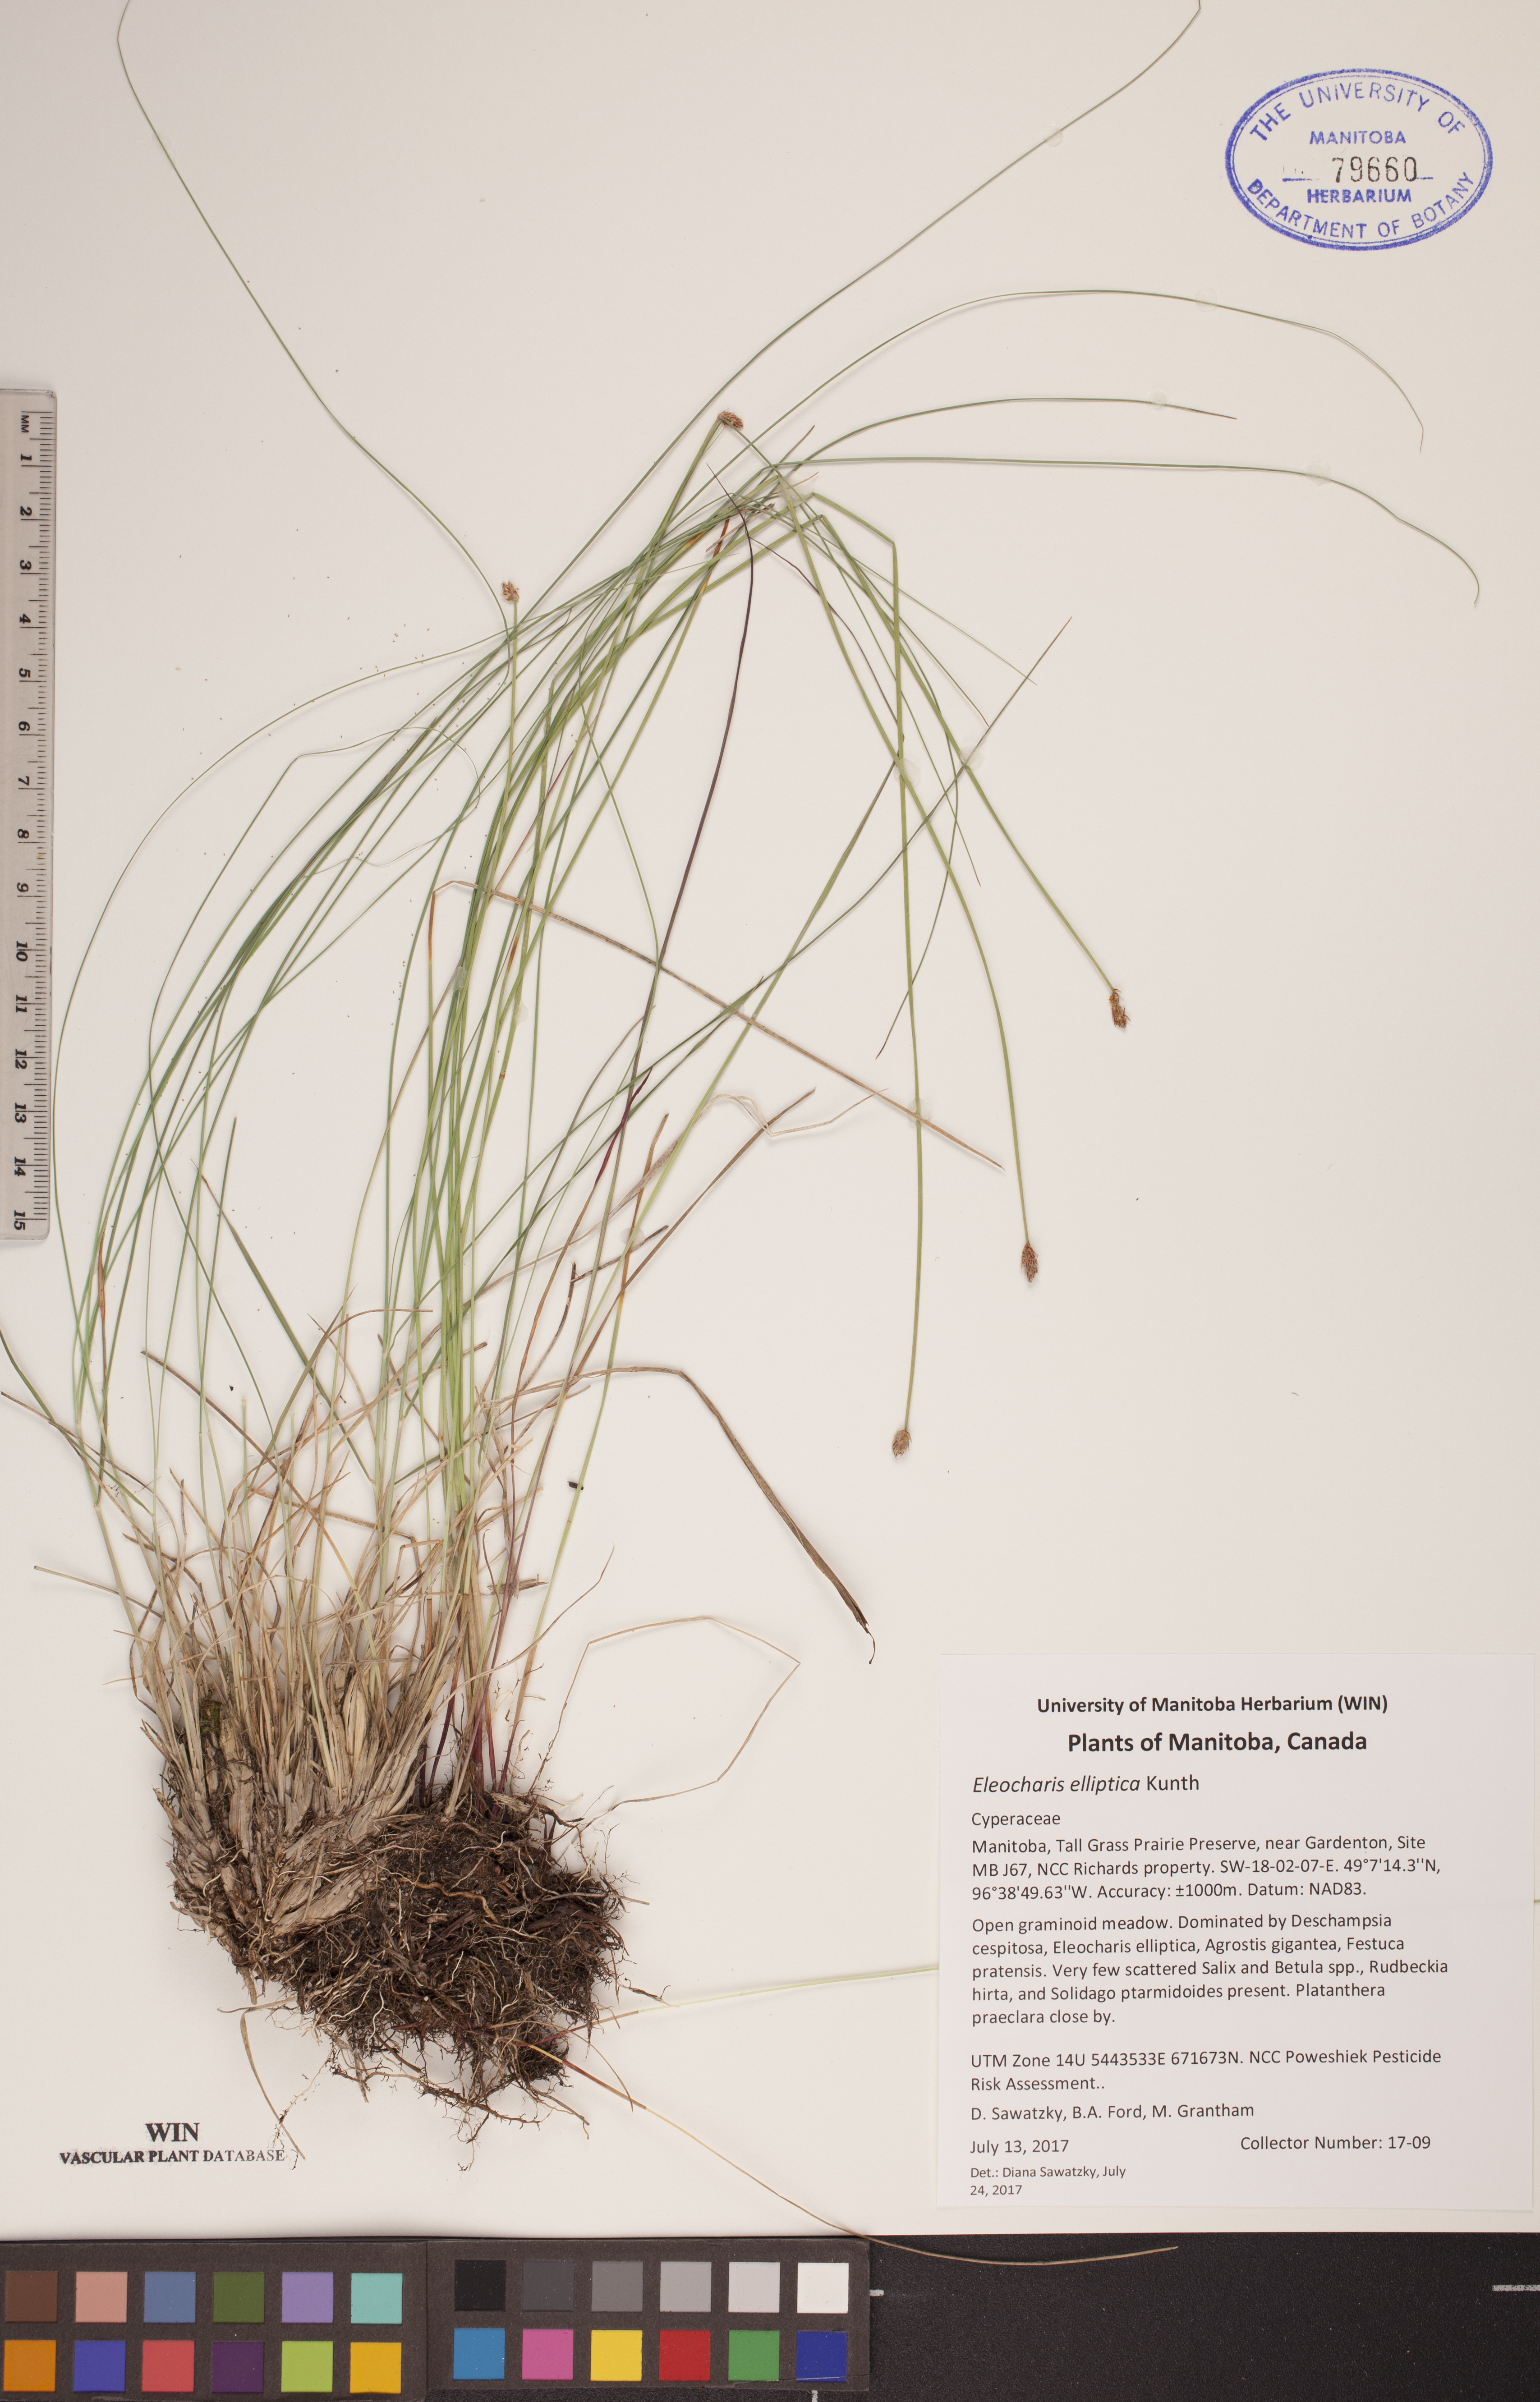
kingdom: Plantae
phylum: Tracheophyta
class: Liliopsida
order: Poales
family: Cyperaceae
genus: Eleocharis
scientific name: Eleocharis elliptica
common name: Capitate spikerush
